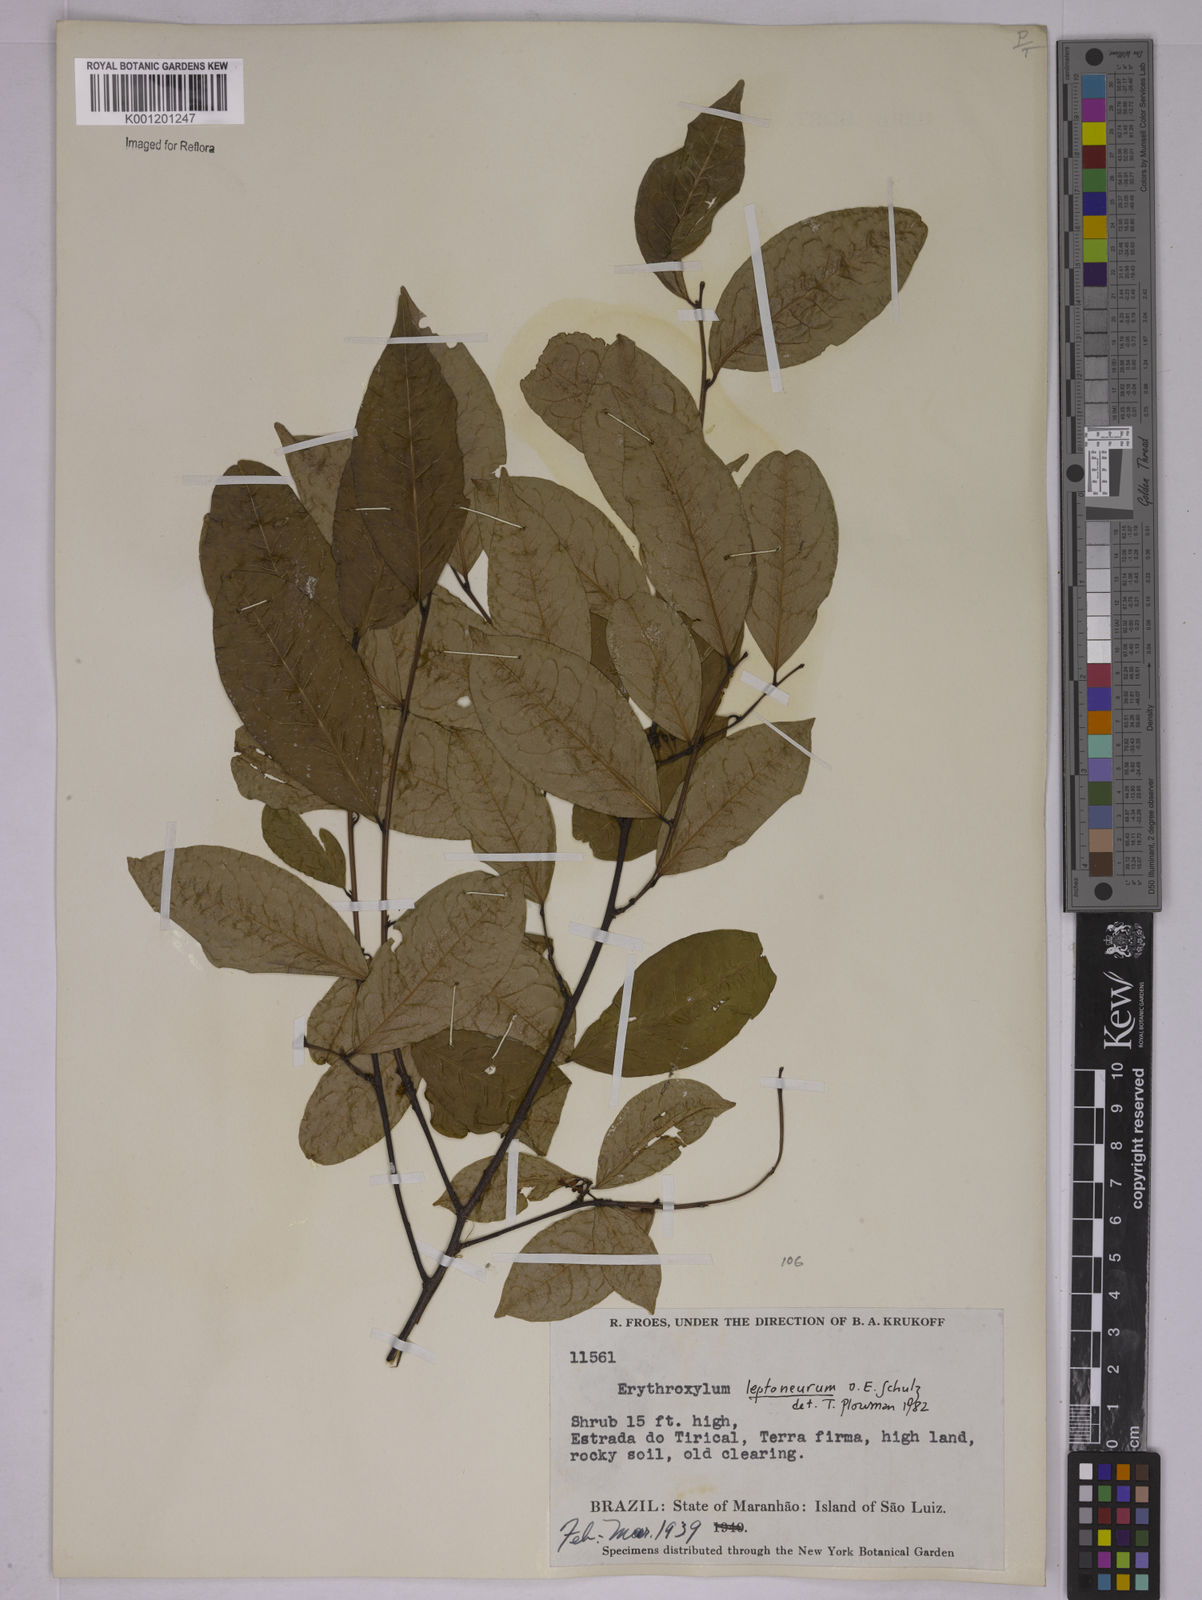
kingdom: Plantae
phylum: Tracheophyta
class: Magnoliopsida
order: Malpighiales
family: Erythroxylaceae
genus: Erythroxylum
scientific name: Erythroxylum leptoneurum
